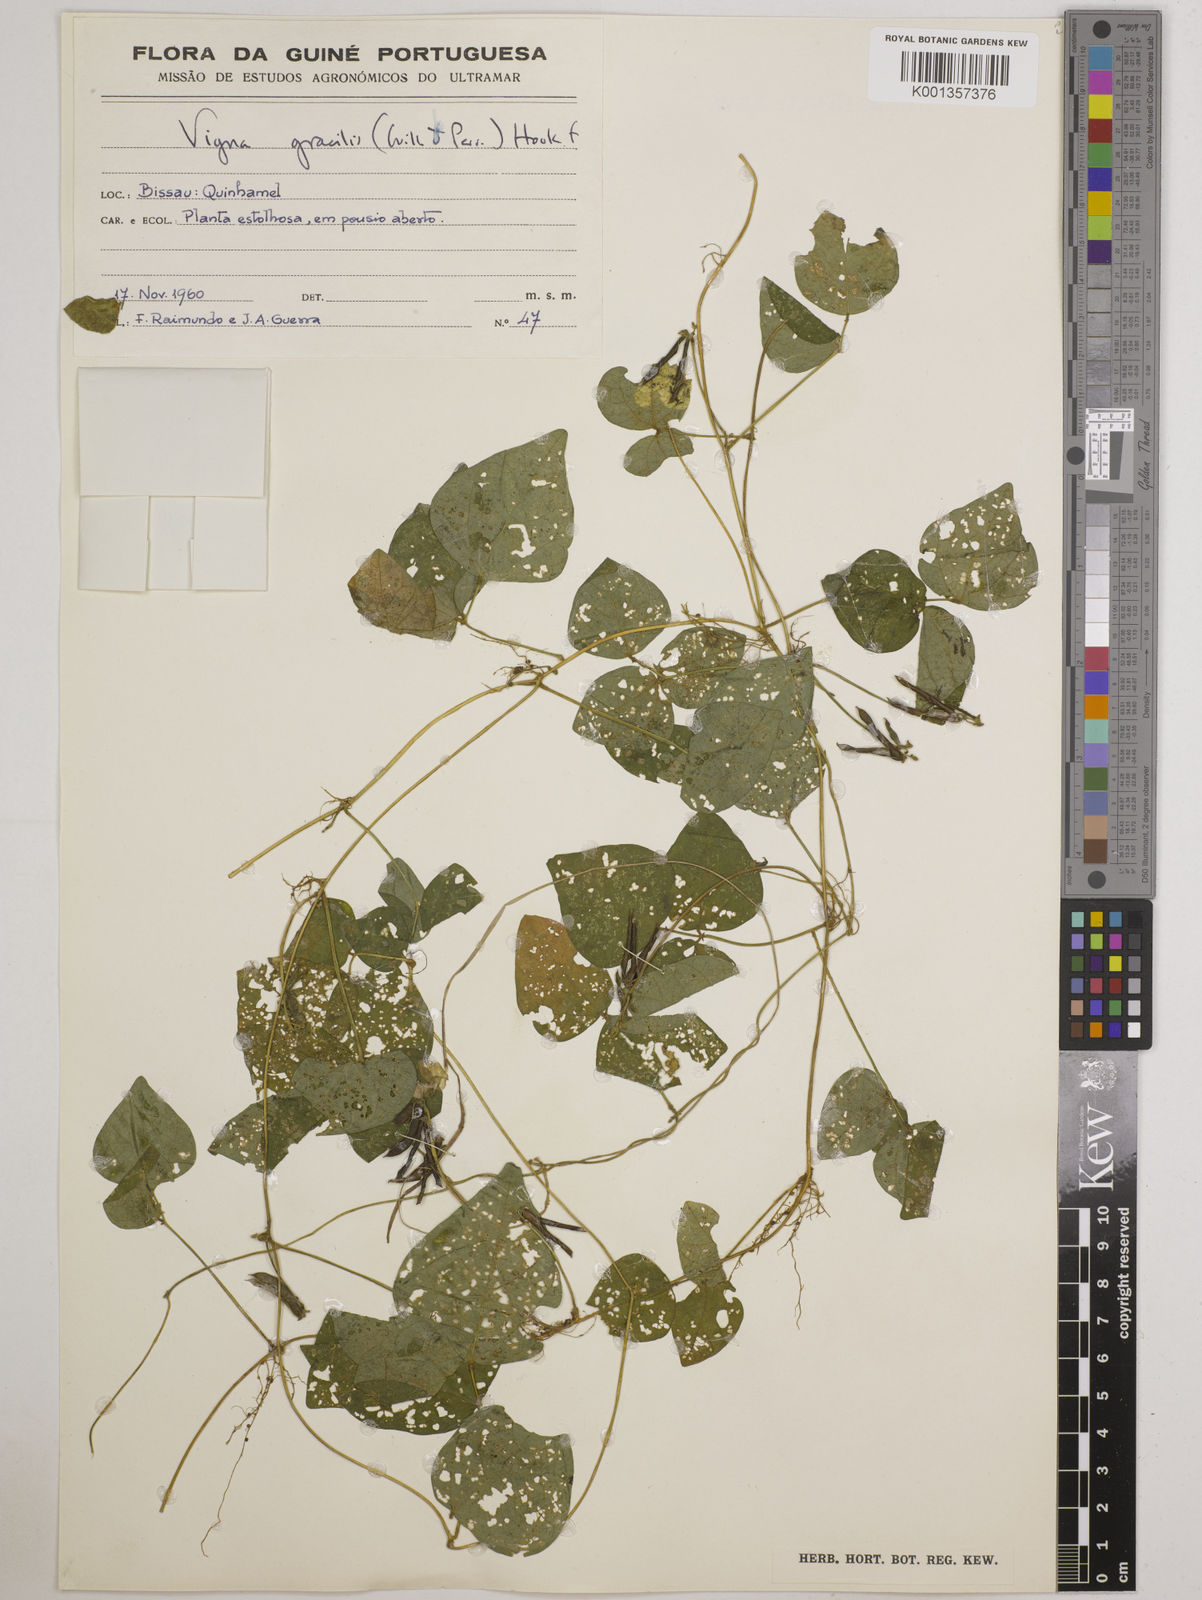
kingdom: Plantae
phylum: Tracheophyta
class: Magnoliopsida
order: Fabales
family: Fabaceae
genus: Vigna
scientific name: Vigna gracilis
